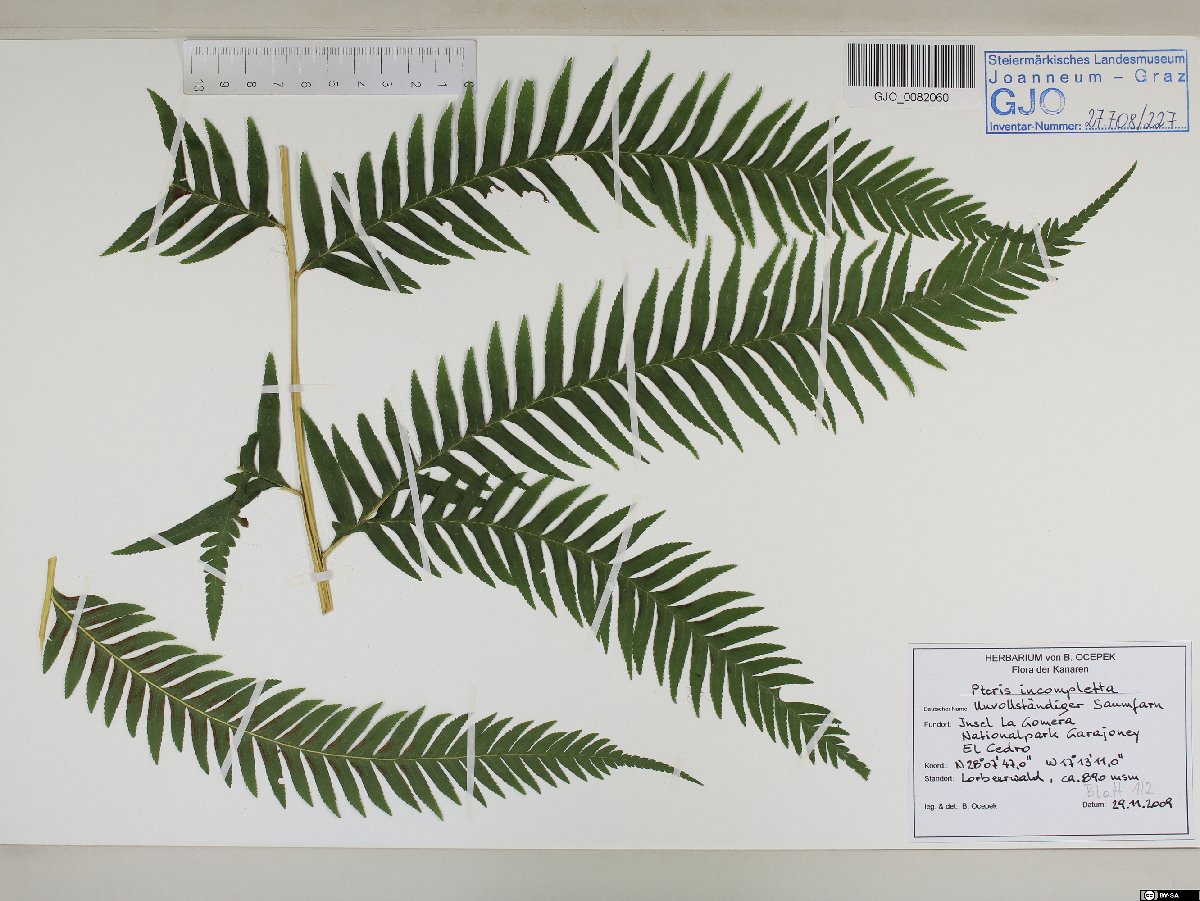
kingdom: Plantae
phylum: Tracheophyta
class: Polypodiopsida
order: Polypodiales
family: Pteridaceae
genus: Pteris
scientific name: Pteris incompleta
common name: Laurisilva brake
